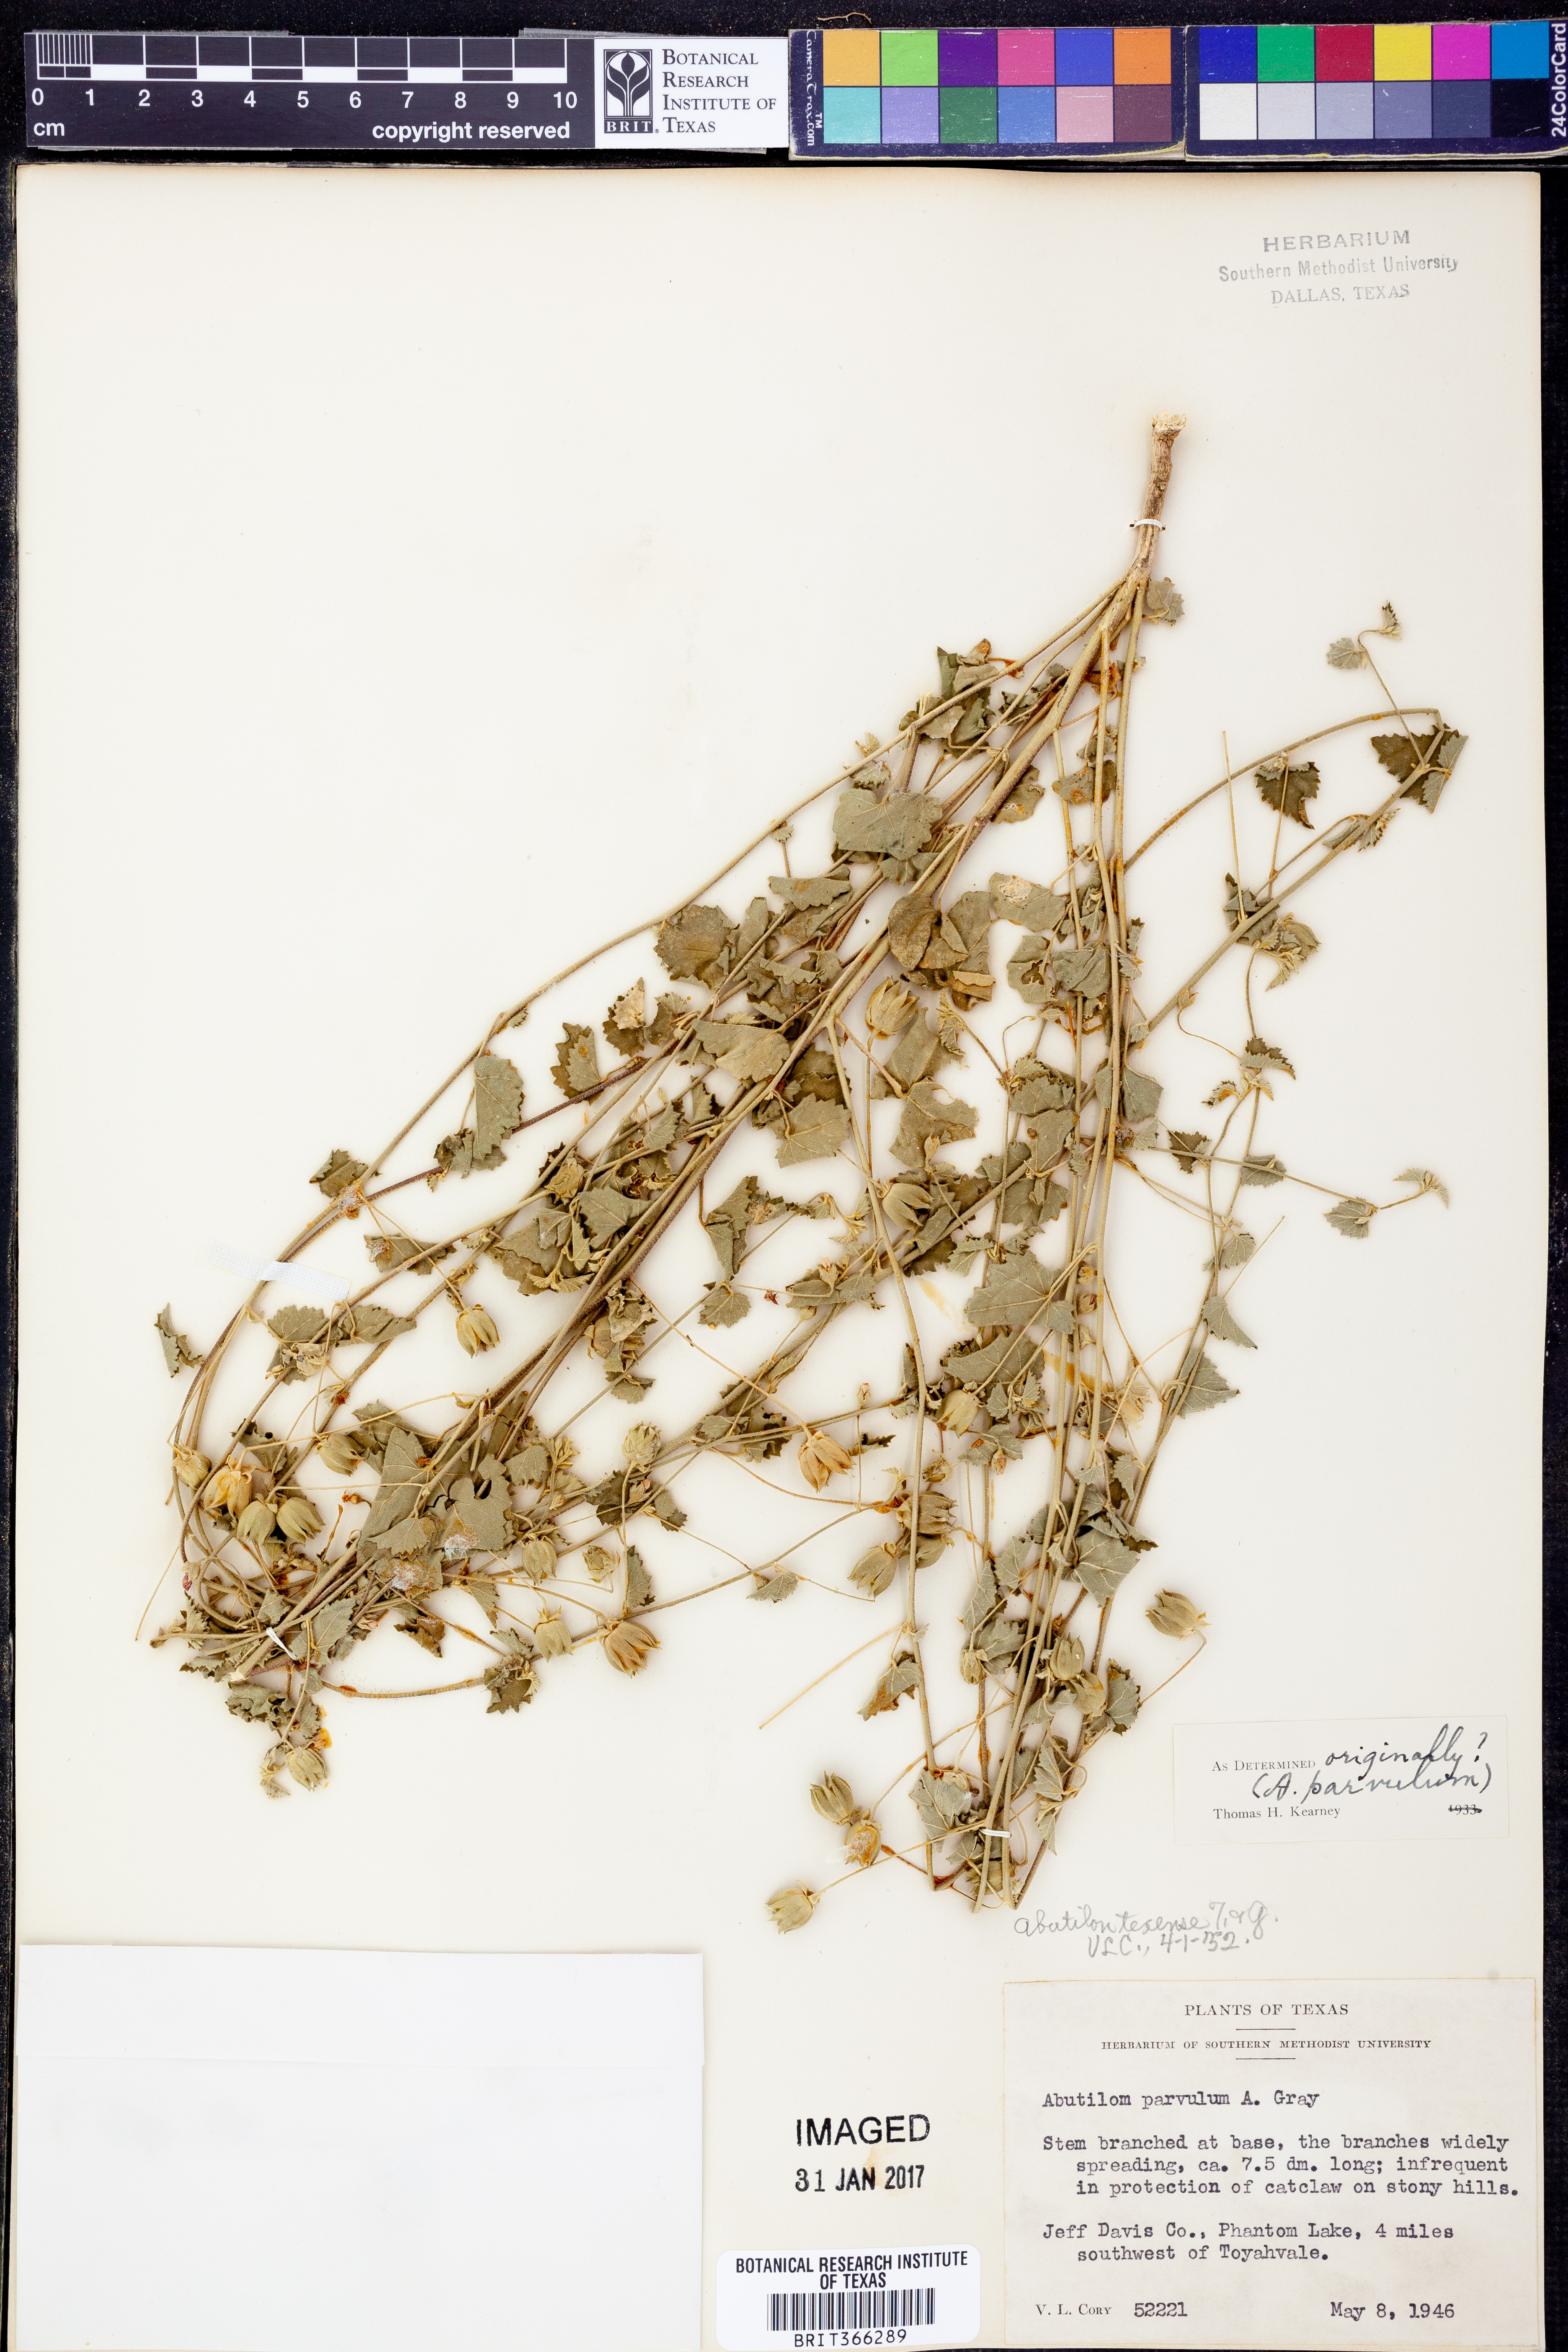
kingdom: Plantae
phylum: Tracheophyta
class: Magnoliopsida
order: Malvales
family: Malvaceae
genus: Abutilon
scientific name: Abutilon parvulum
